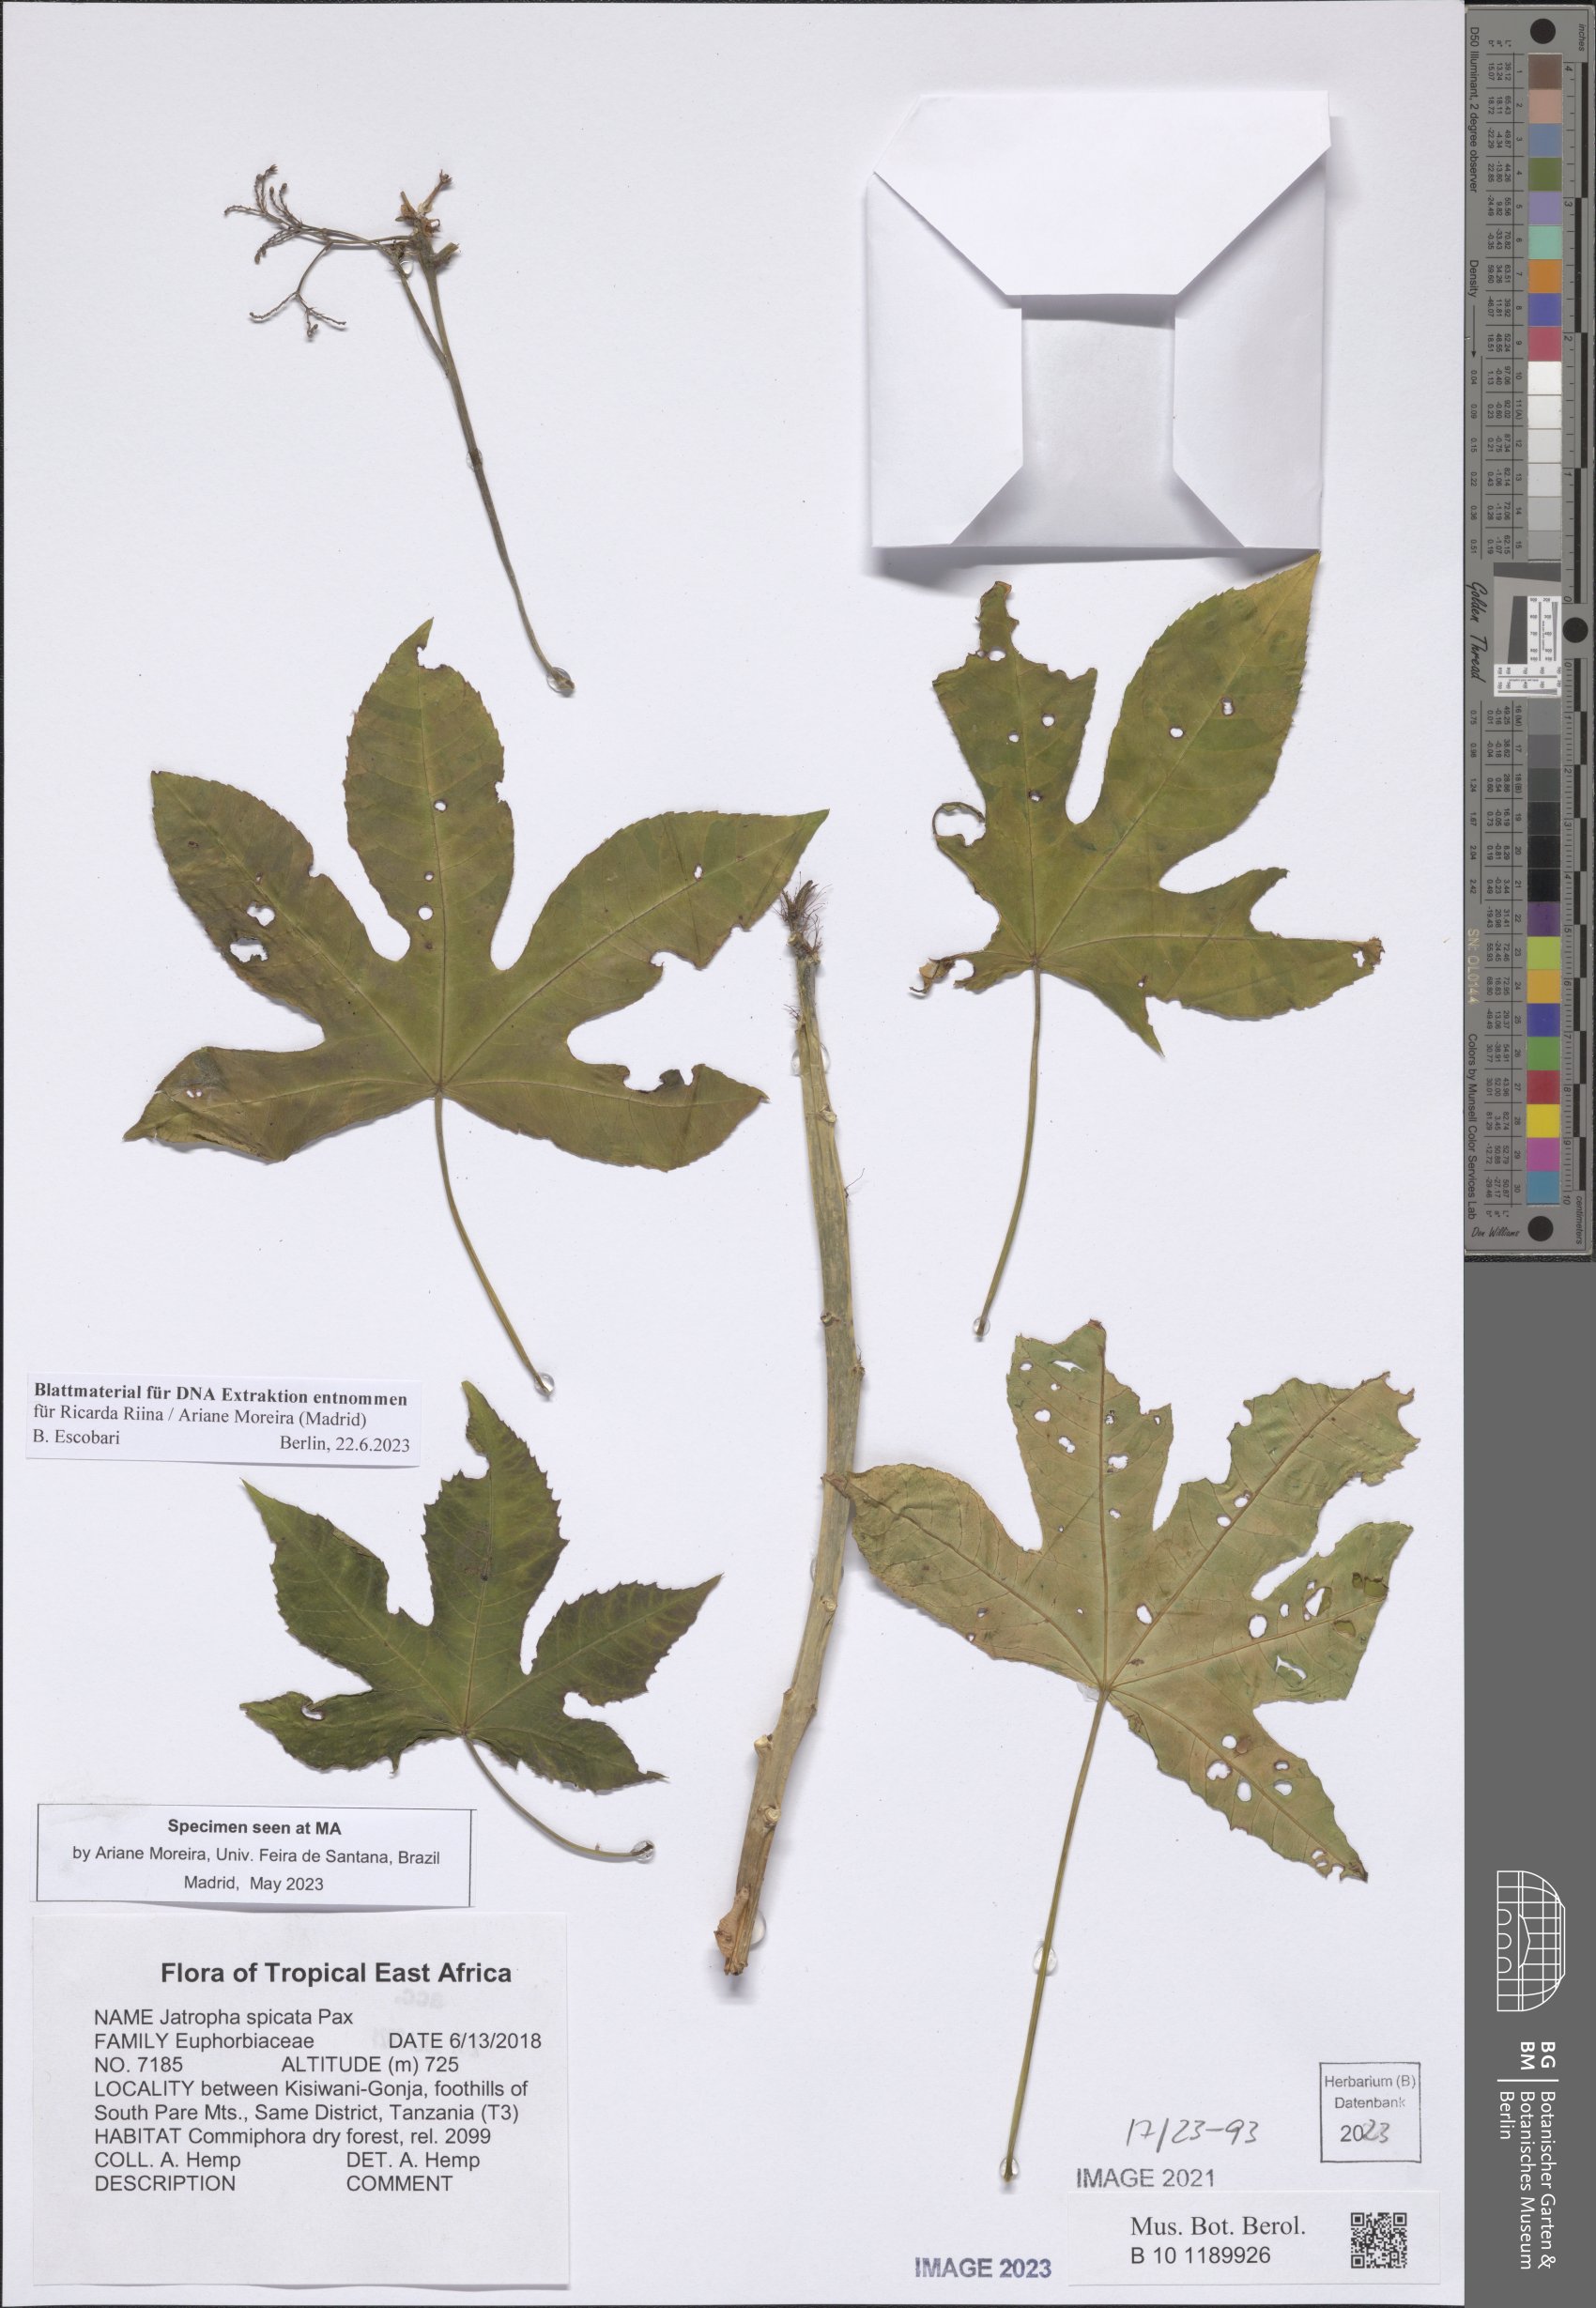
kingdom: Plantae
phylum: Tracheophyta
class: Magnoliopsida
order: Malpighiales
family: Euphorbiaceae
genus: Jatropha
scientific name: Jatropha spicata
